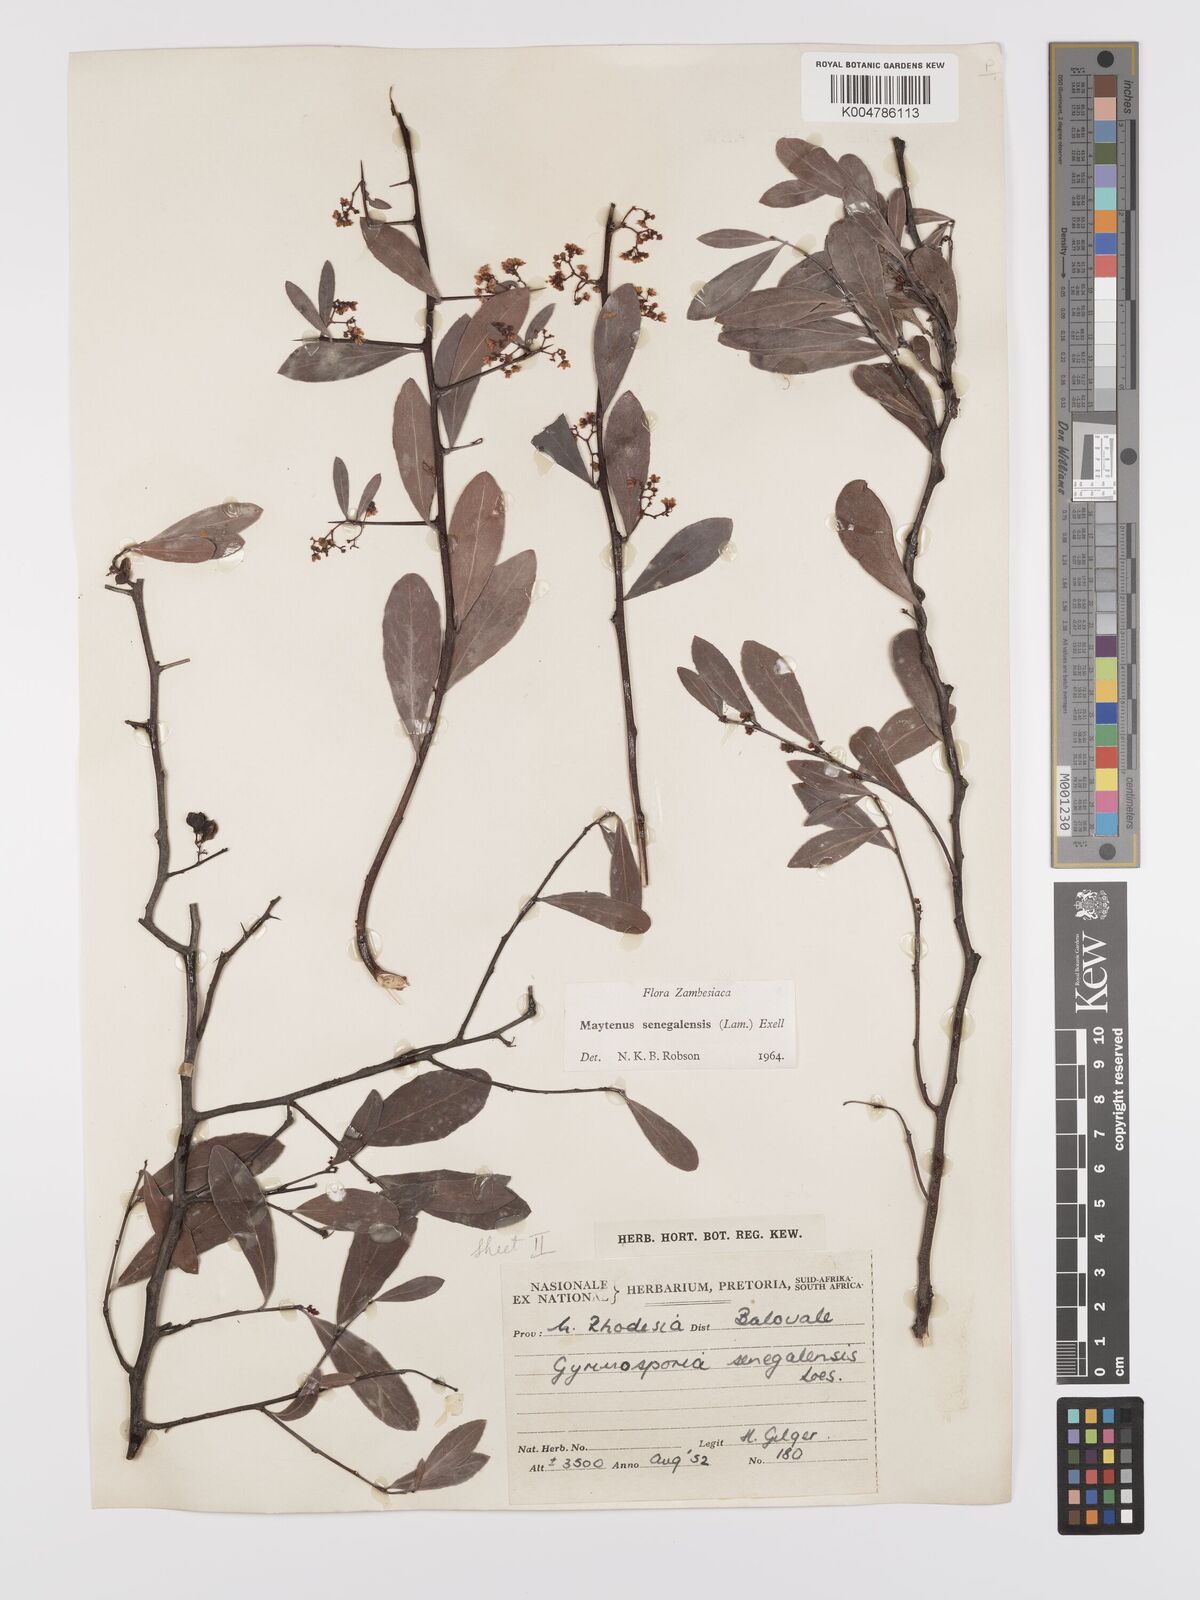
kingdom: Plantae
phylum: Tracheophyta
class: Magnoliopsida
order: Celastrales
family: Celastraceae
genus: Gymnosporia
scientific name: Gymnosporia senegalensis
